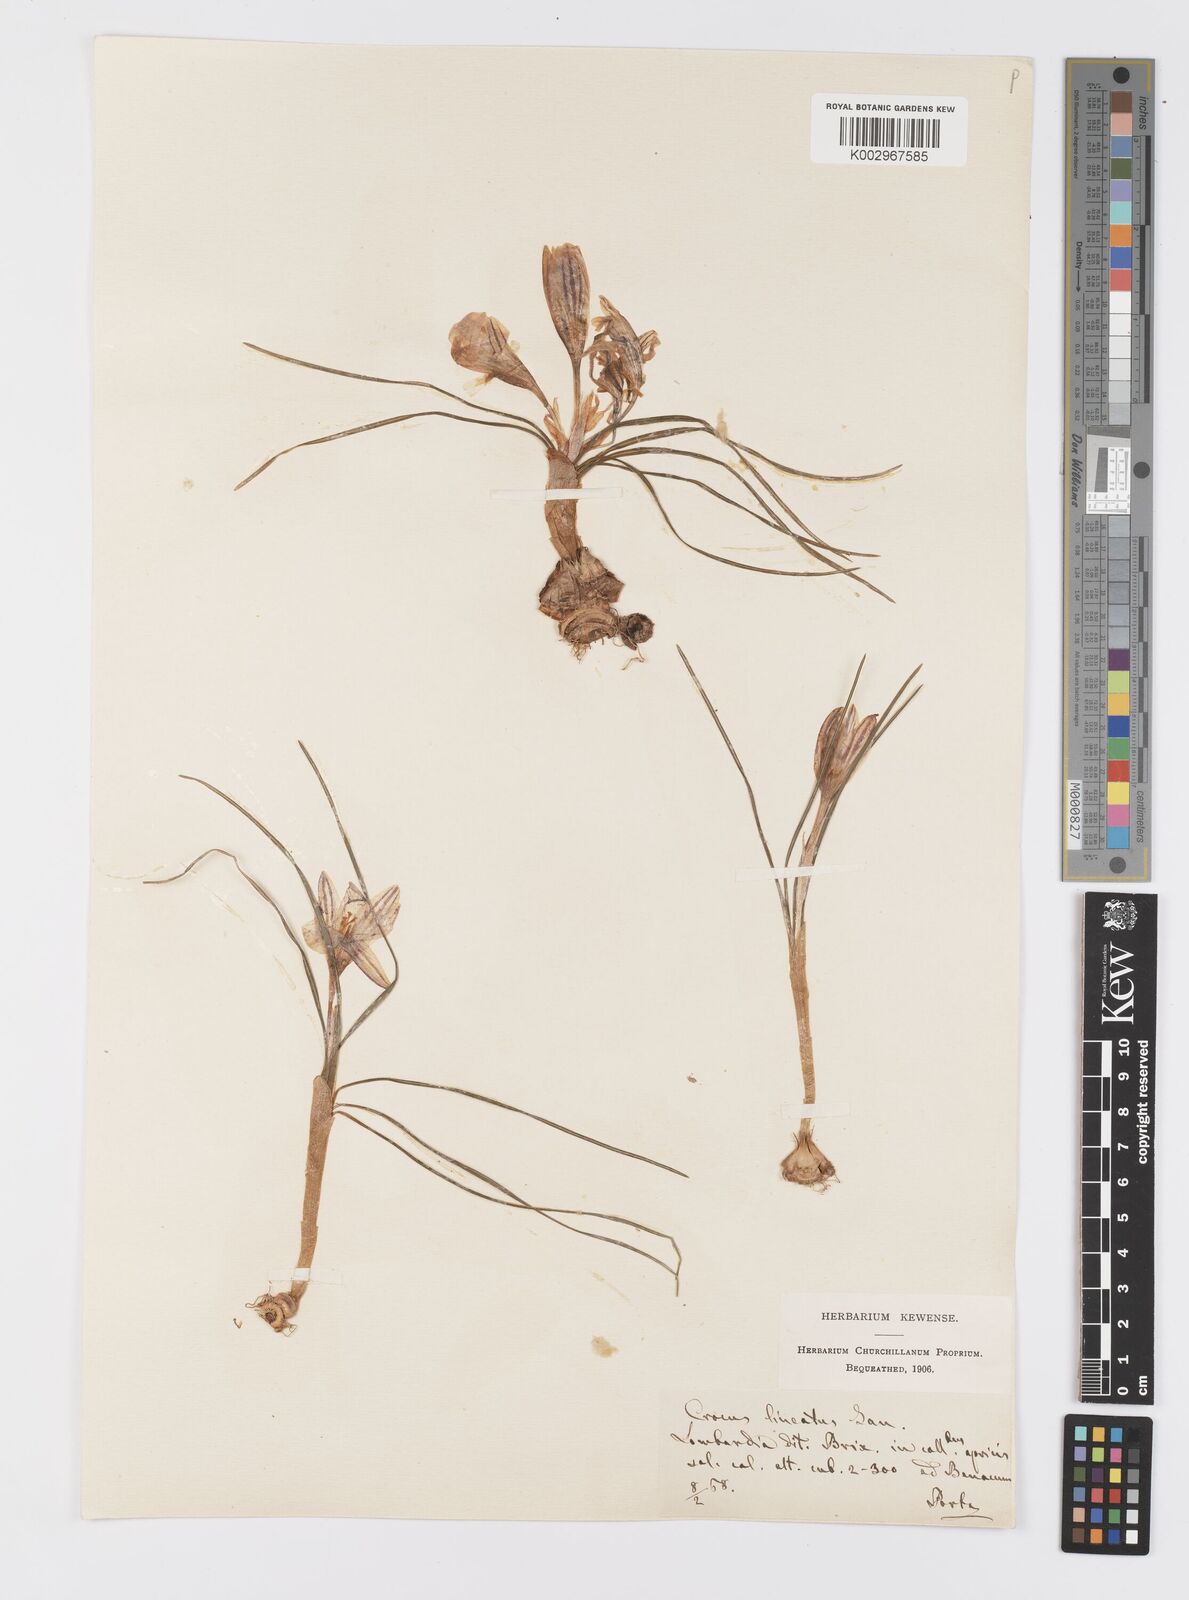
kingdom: Plantae
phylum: Tracheophyta
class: Liliopsida
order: Asparagales
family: Iridaceae
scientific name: Iridaceae
